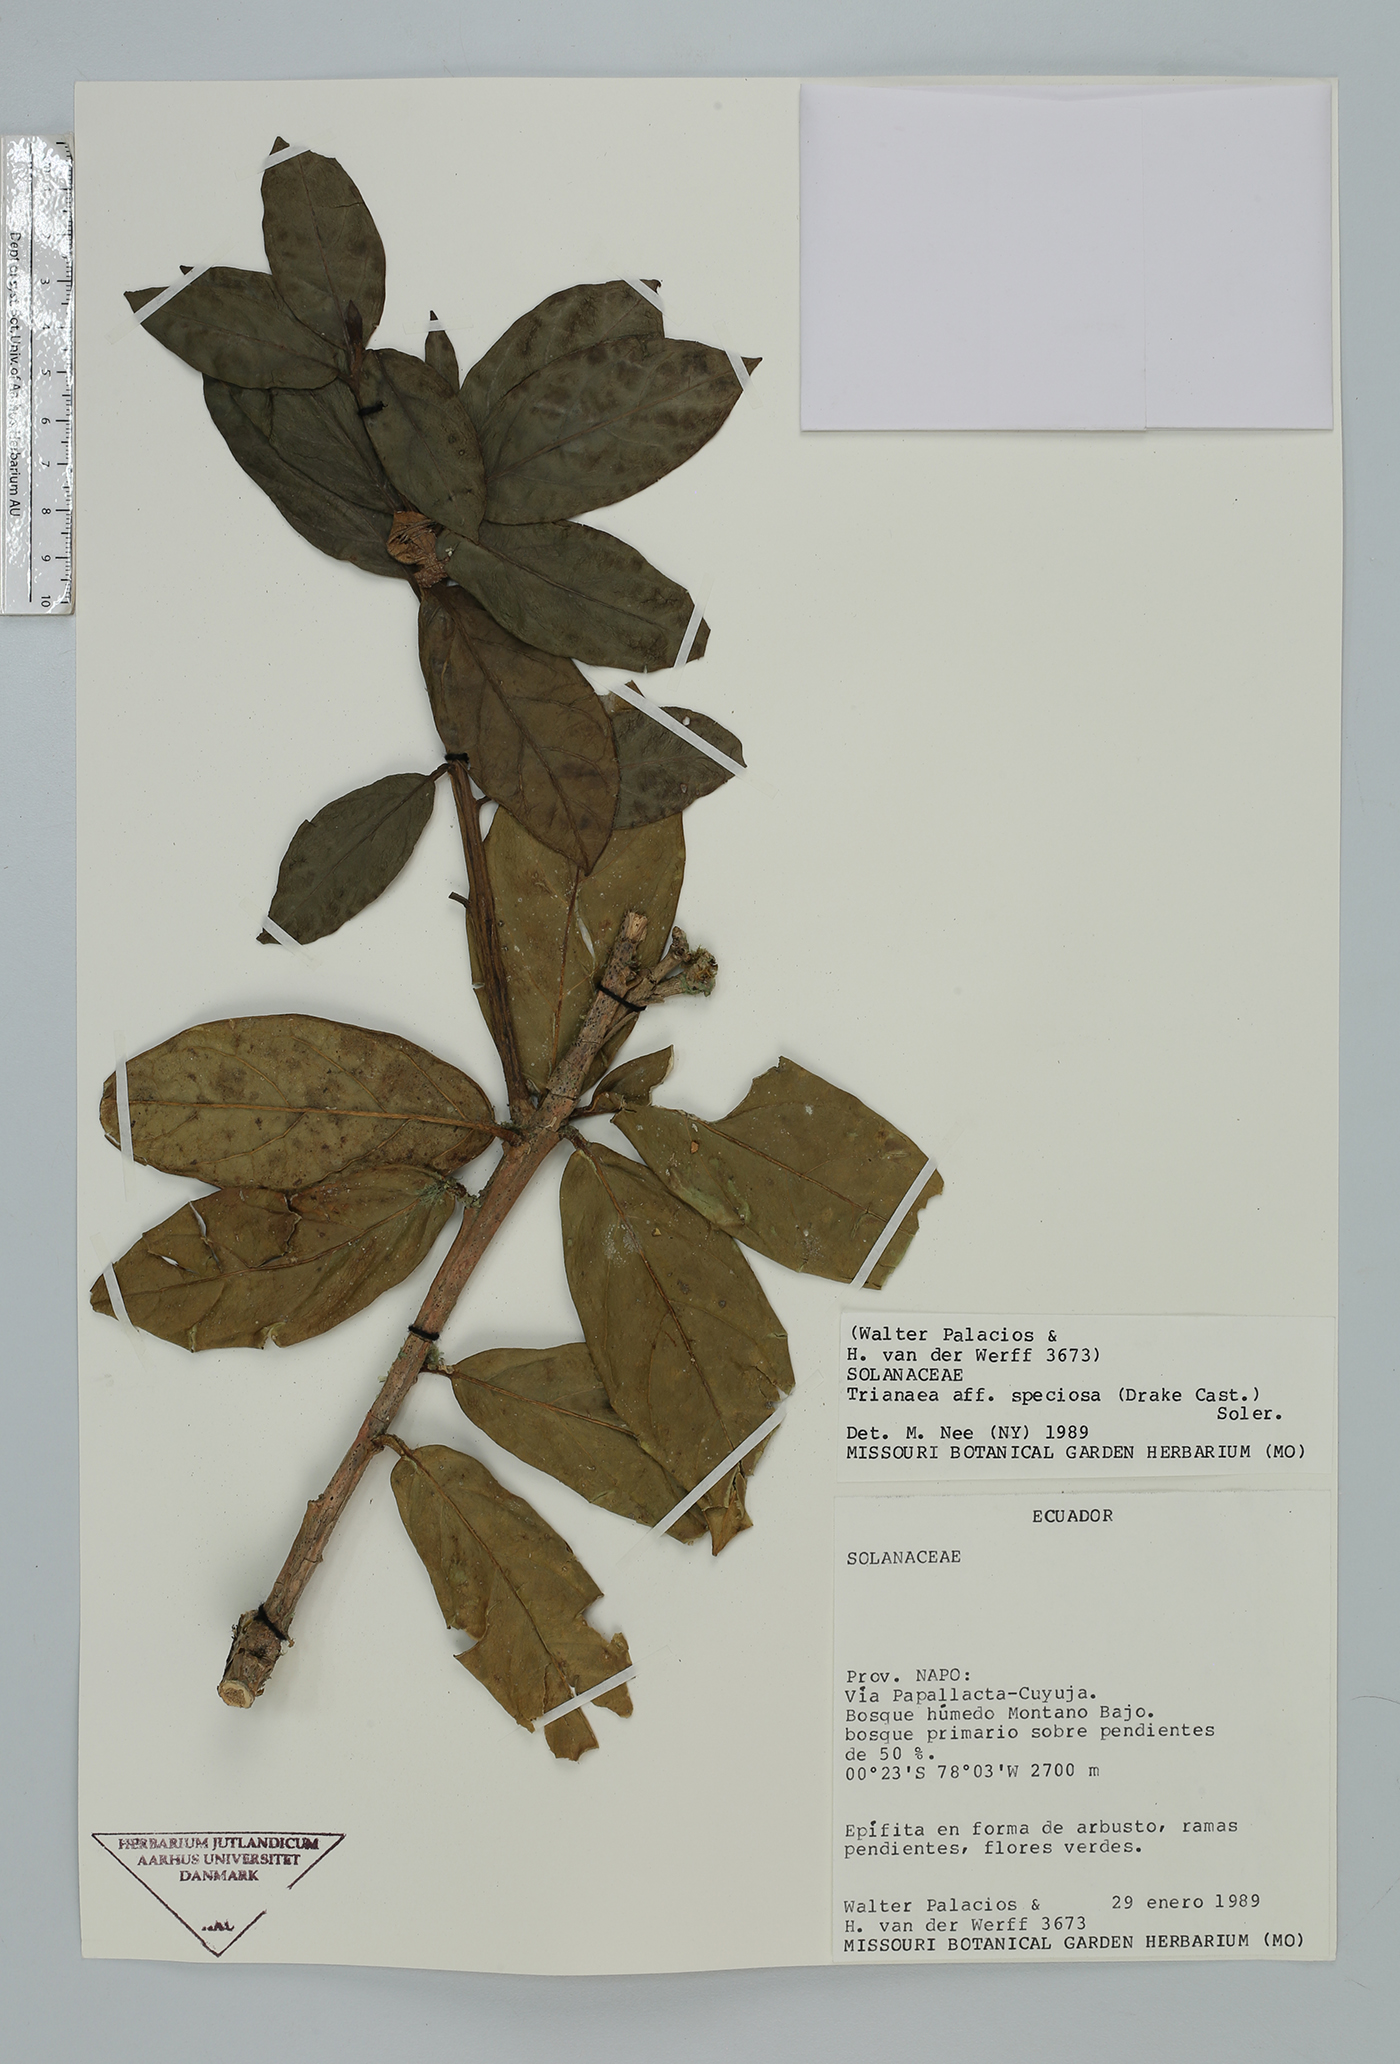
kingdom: Plantae
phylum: Tracheophyta
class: Magnoliopsida
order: Solanales
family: Solanaceae
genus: Trianaea
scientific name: Trianaea nobilis
